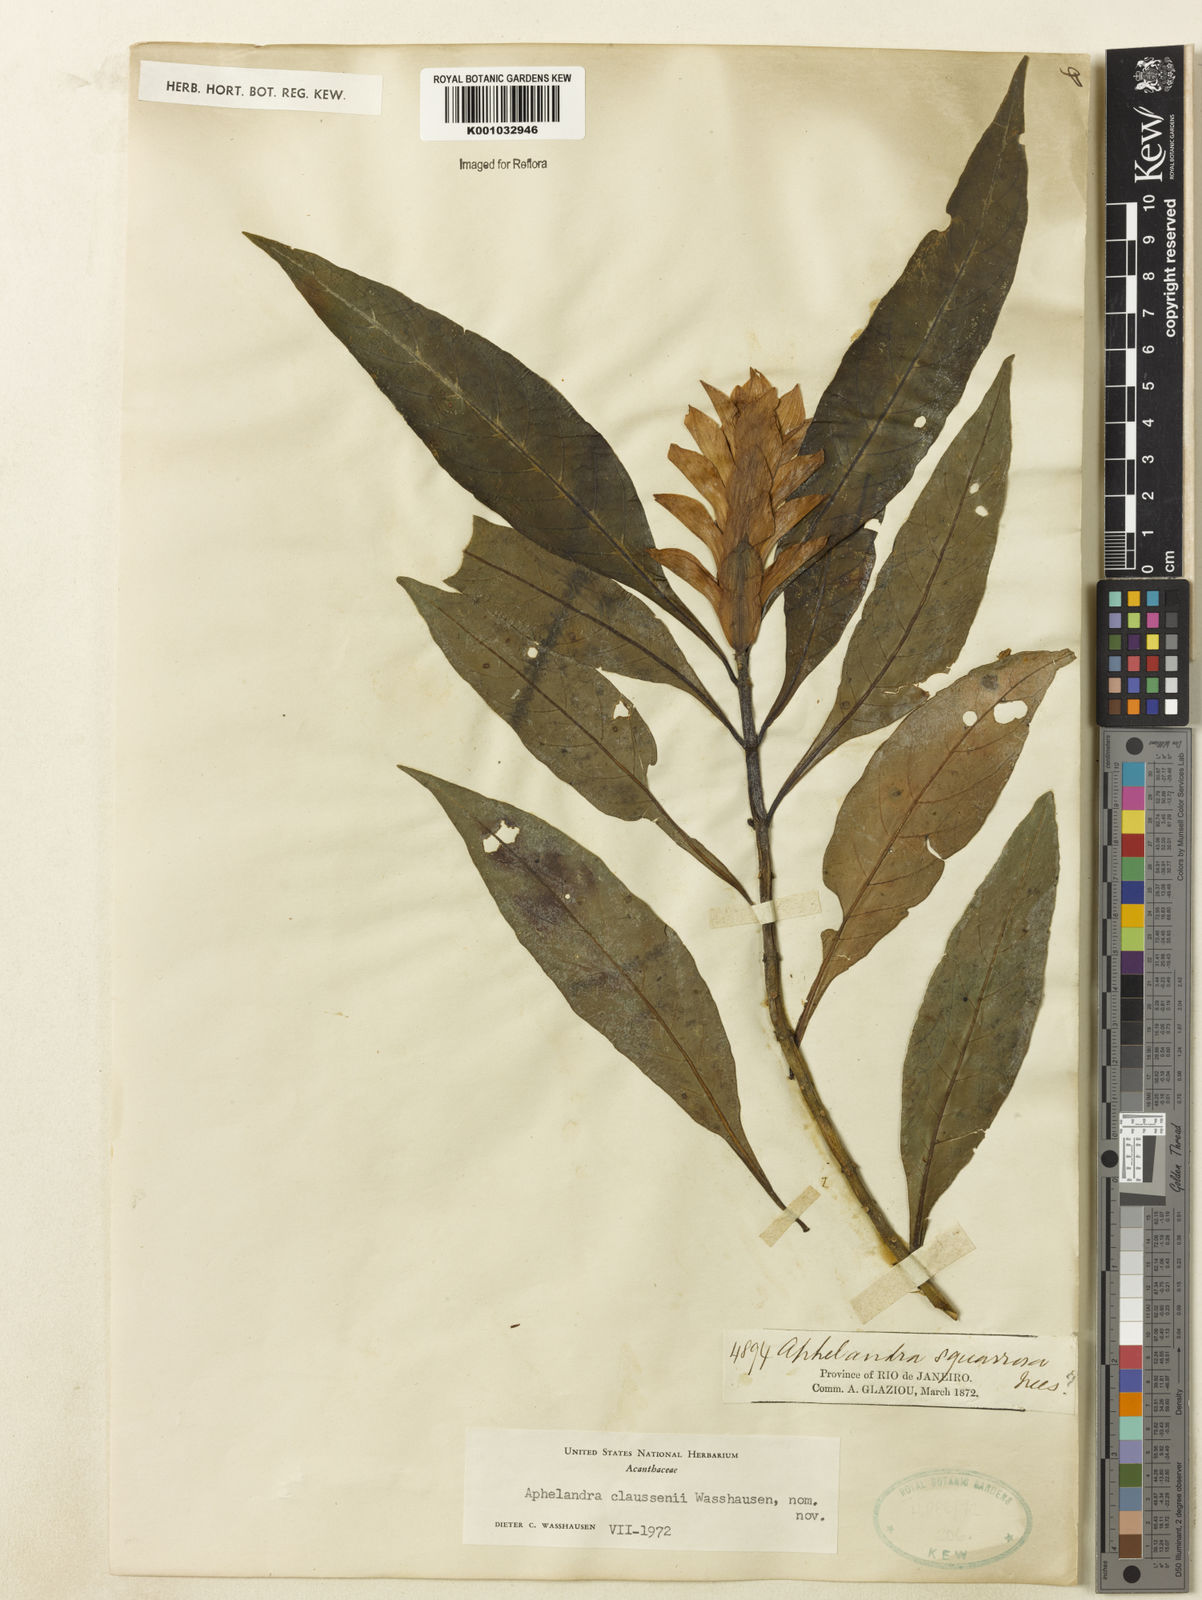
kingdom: Plantae
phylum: Tracheophyta
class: Magnoliopsida
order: Lamiales
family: Acanthaceae
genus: Aphelandra
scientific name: Aphelandra claussenii
